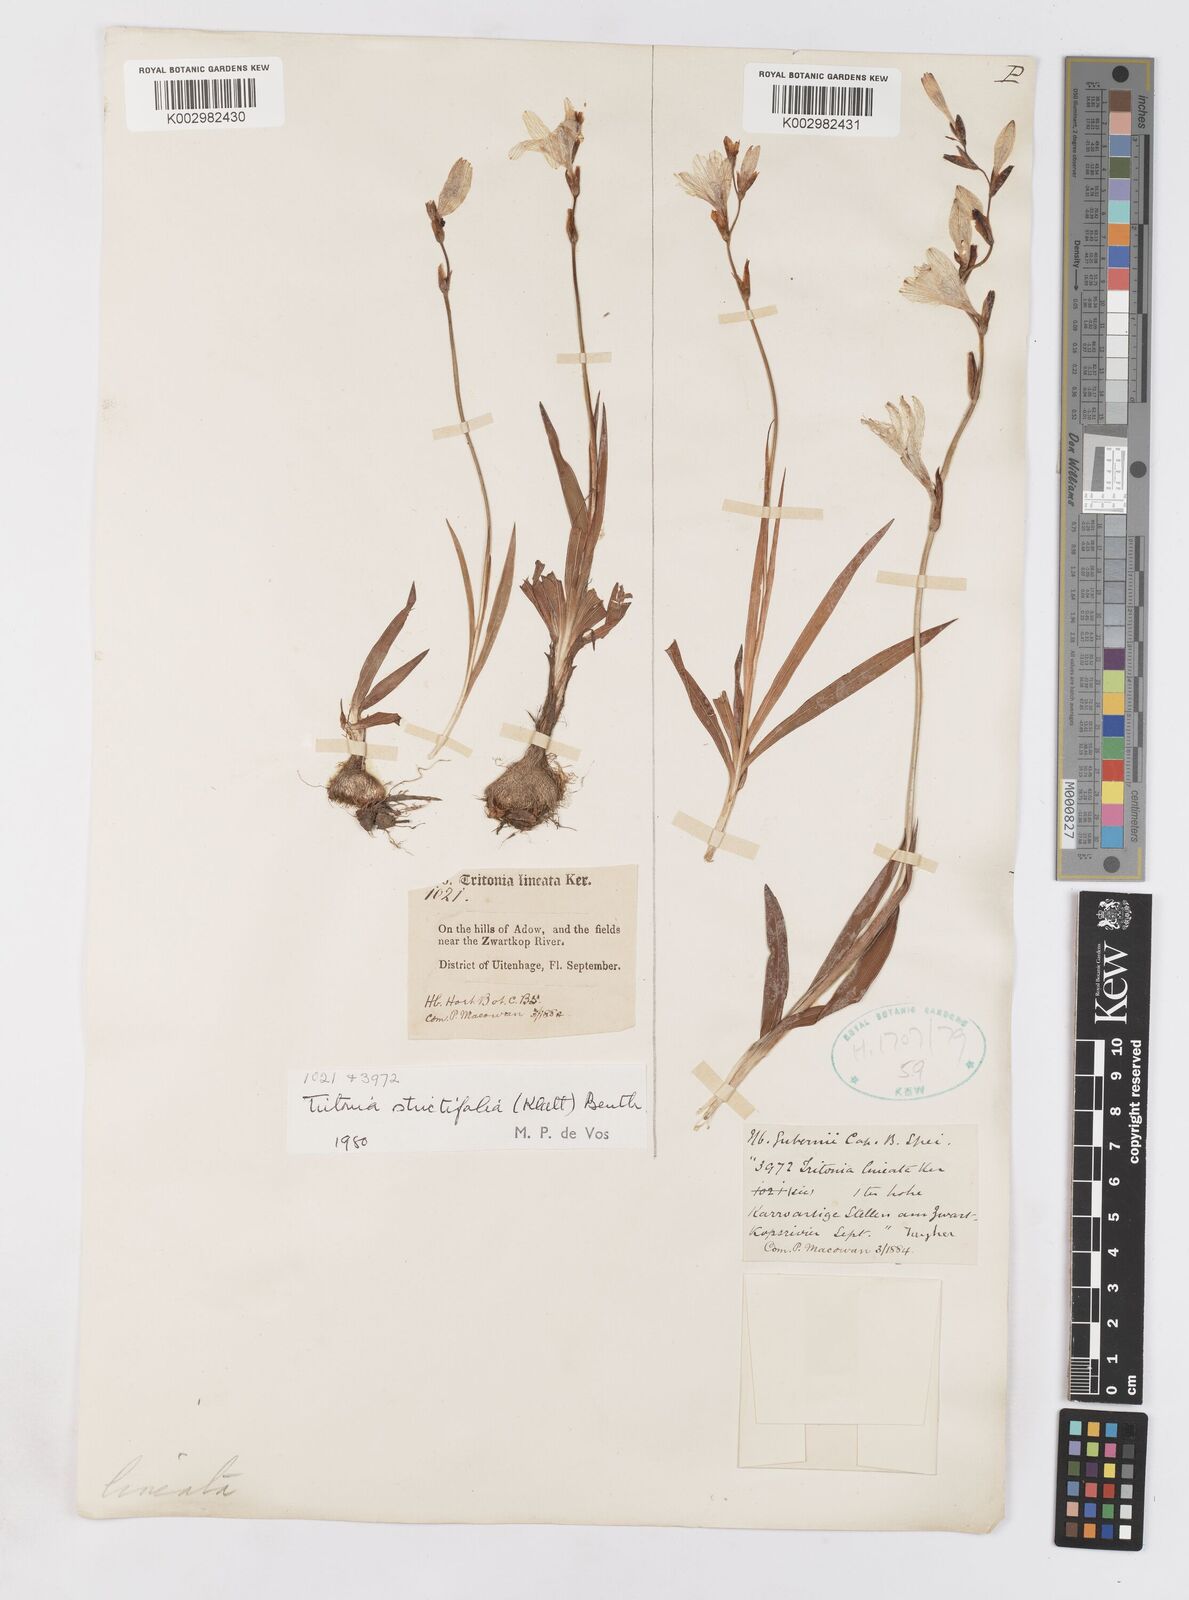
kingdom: Plantae
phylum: Tracheophyta
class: Liliopsida
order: Asparagales
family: Iridaceae
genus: Tritonia
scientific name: Tritonia laxifolia
